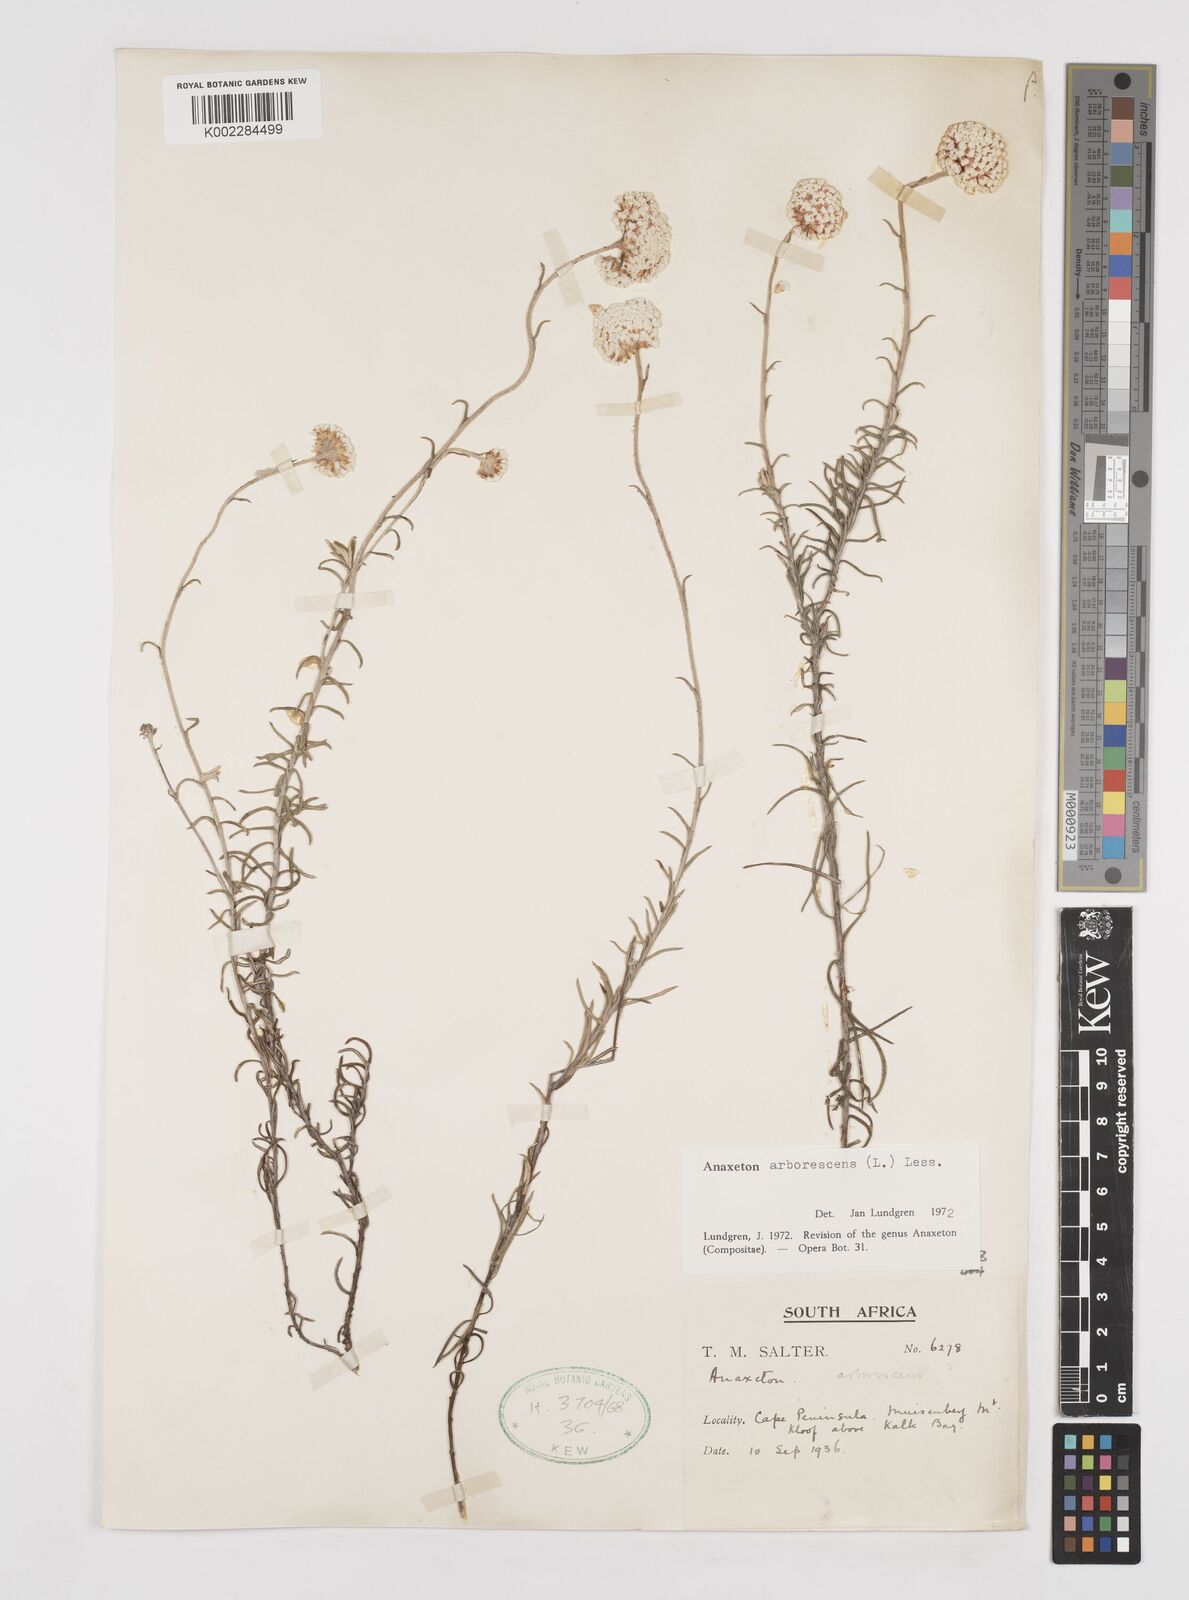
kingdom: Plantae
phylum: Tracheophyta
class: Magnoliopsida
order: Asterales
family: Asteraceae
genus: Anaxeton
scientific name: Anaxeton arborescens
